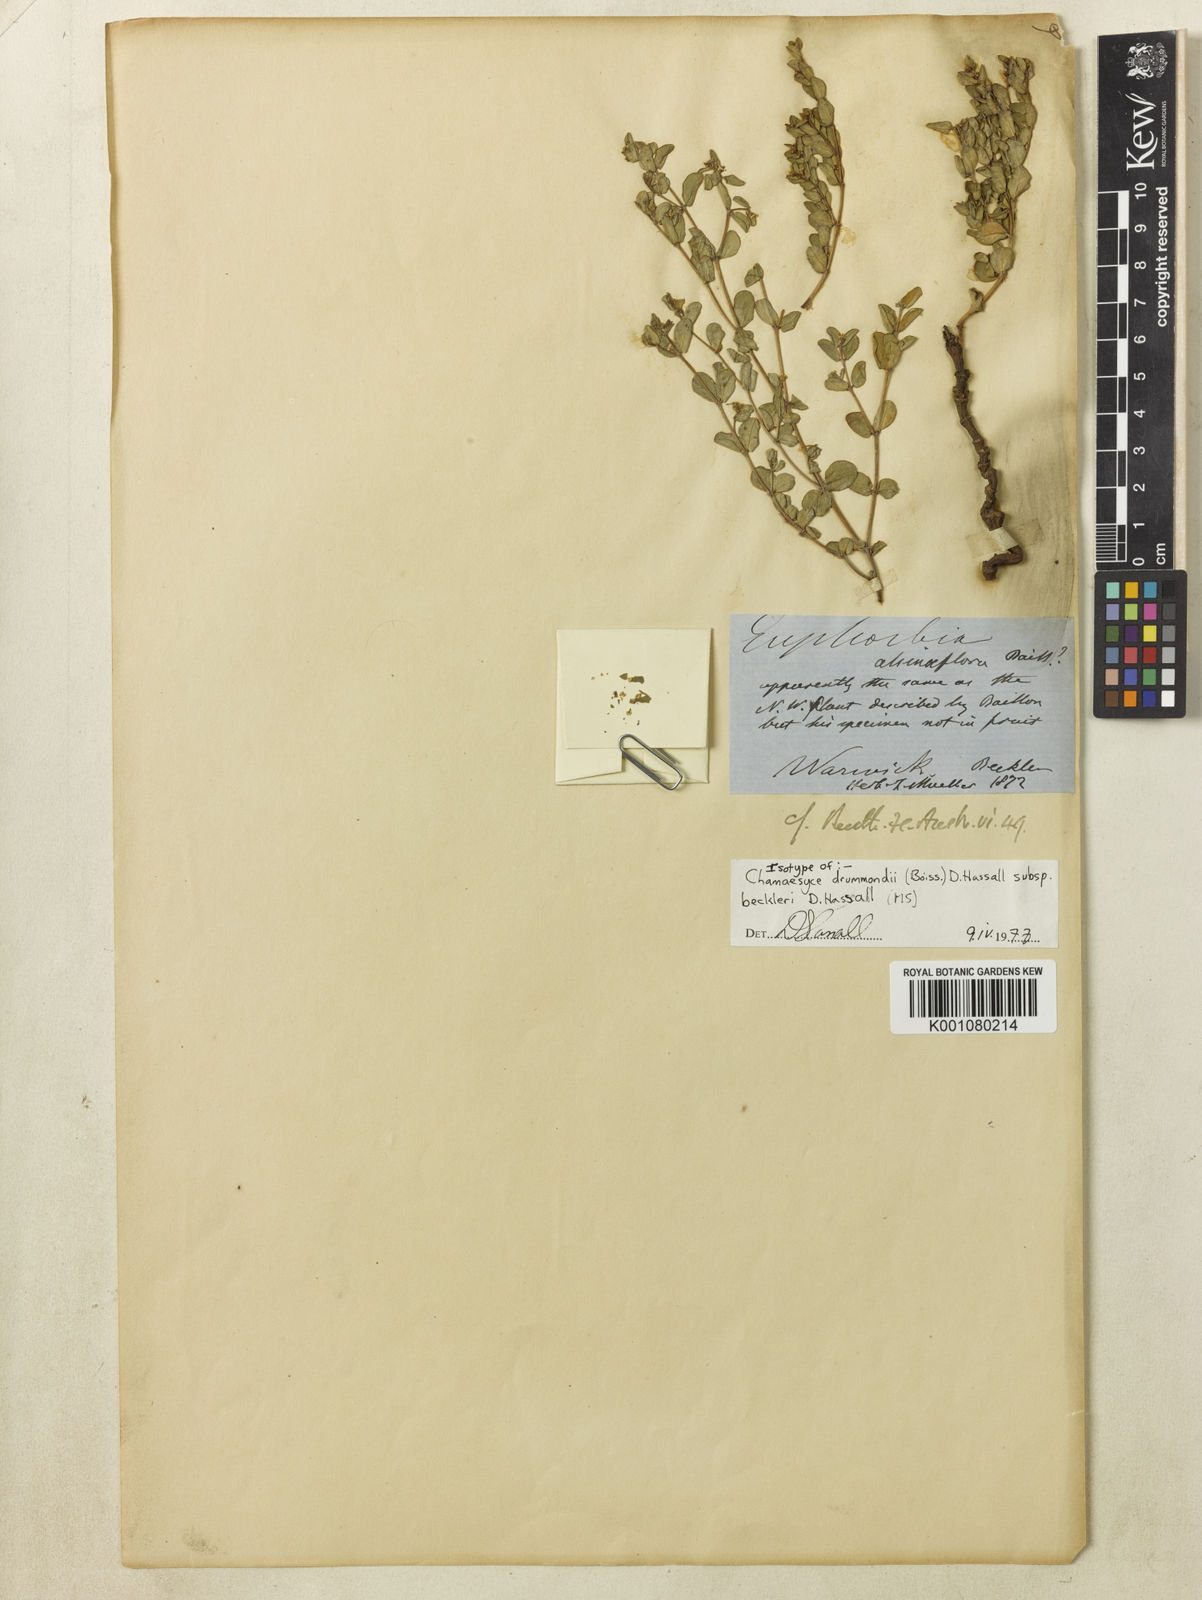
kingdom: Plantae
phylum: Tracheophyta
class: Magnoliopsida
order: Malpighiales
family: Euphorbiaceae
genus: Euphorbia
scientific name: Euphorbia drummondii
